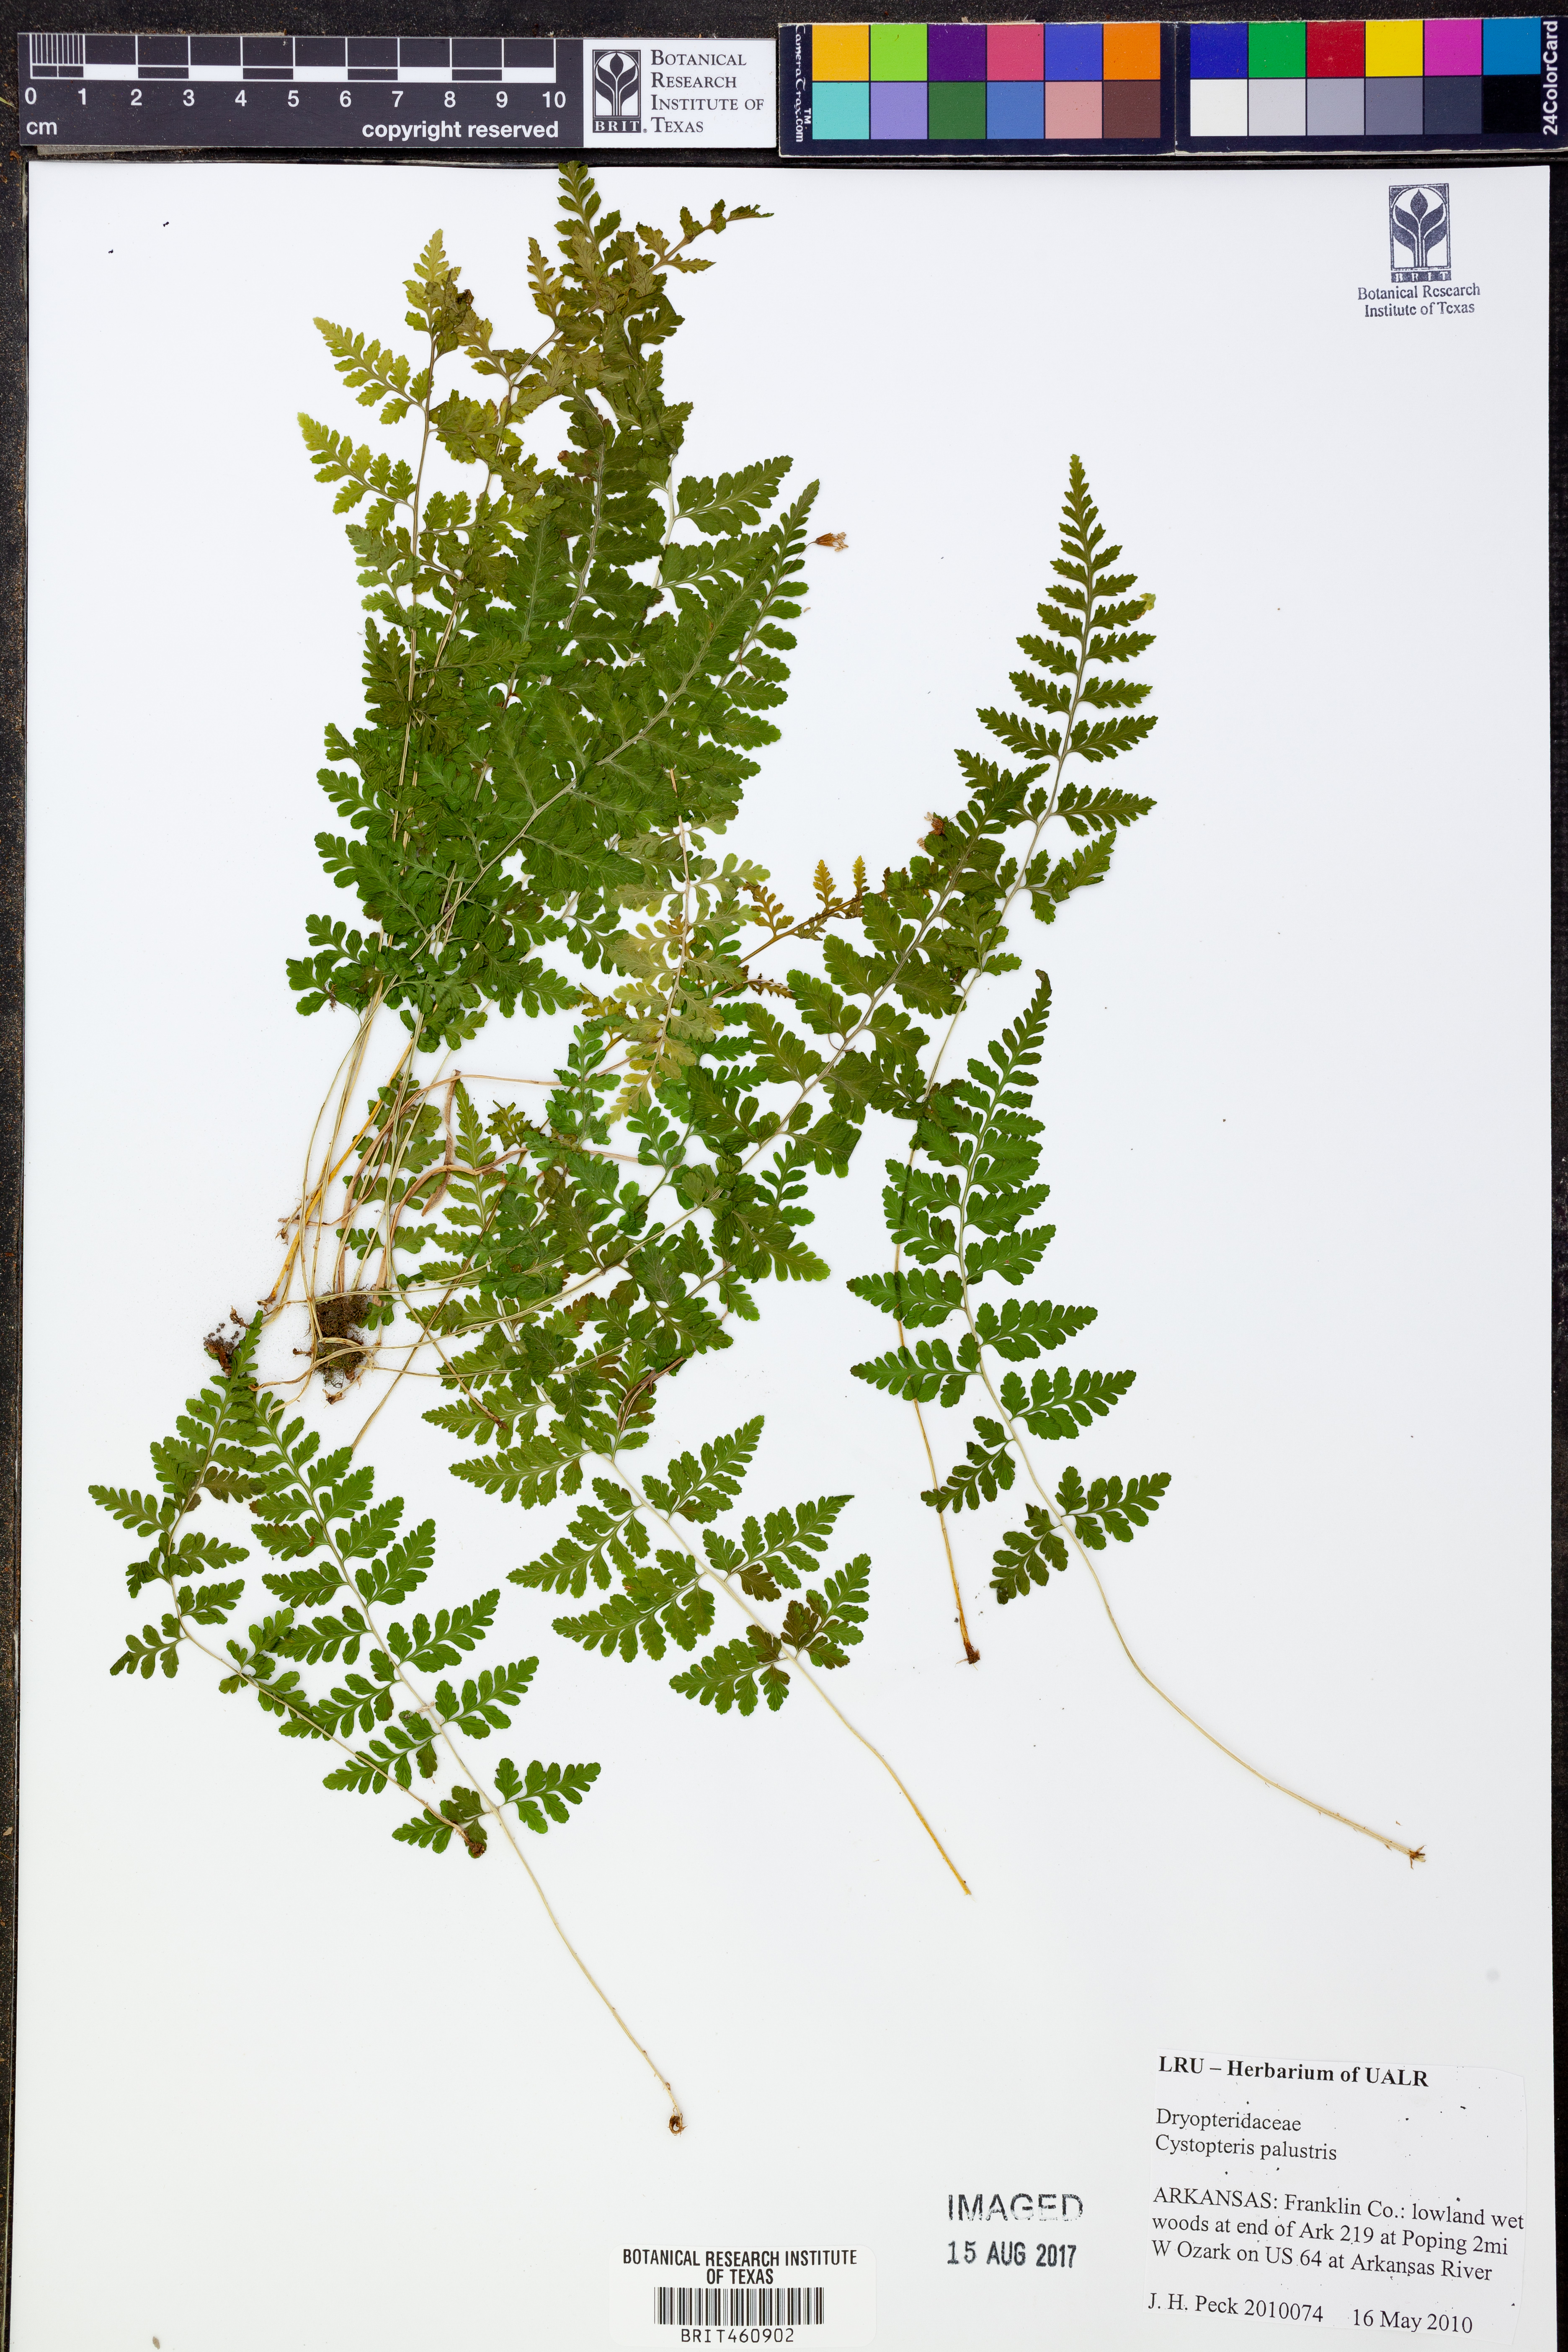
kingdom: Plantae
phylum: Tracheophyta
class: Polypodiopsida
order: Polypodiales
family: Cystopteridaceae
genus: Cystopteris
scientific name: Cystopteris
